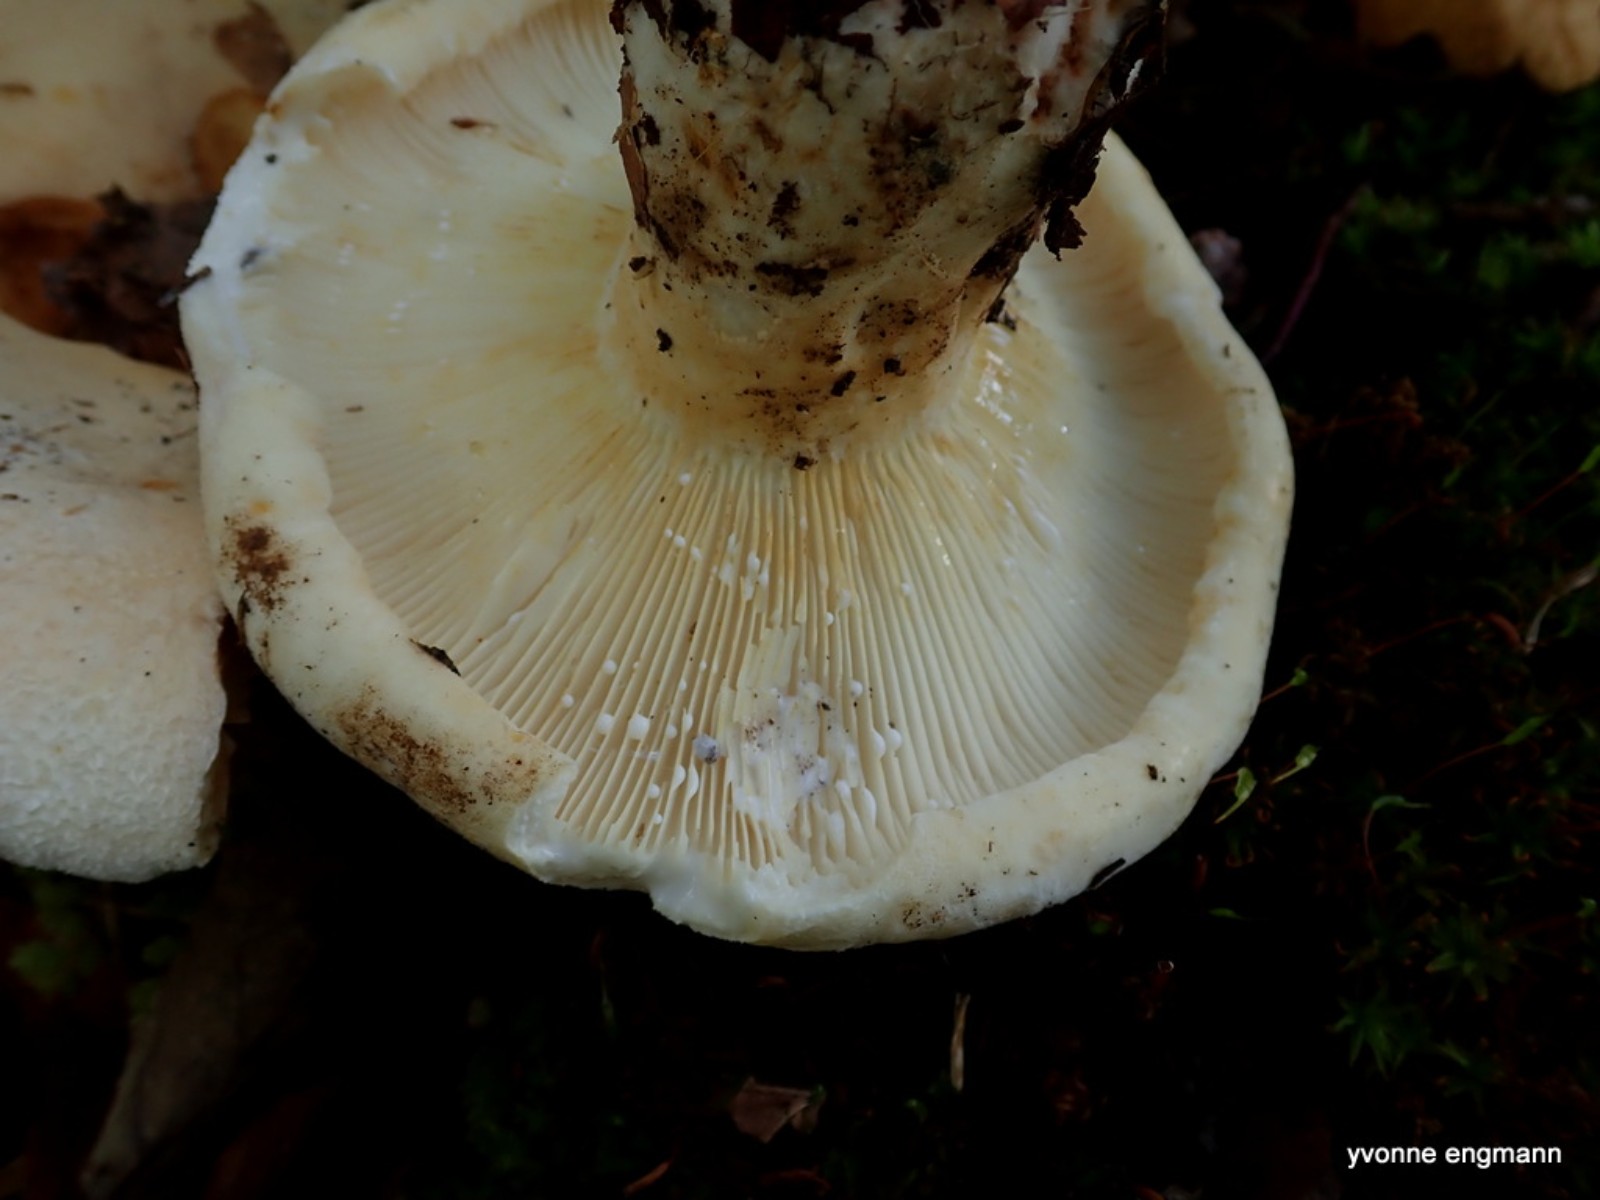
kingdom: Fungi
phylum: Basidiomycota
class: Agaricomycetes
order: Russulales
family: Russulaceae
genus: Lactifluus
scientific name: Lactifluus vellereus
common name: hvidfiltet mælkehat
